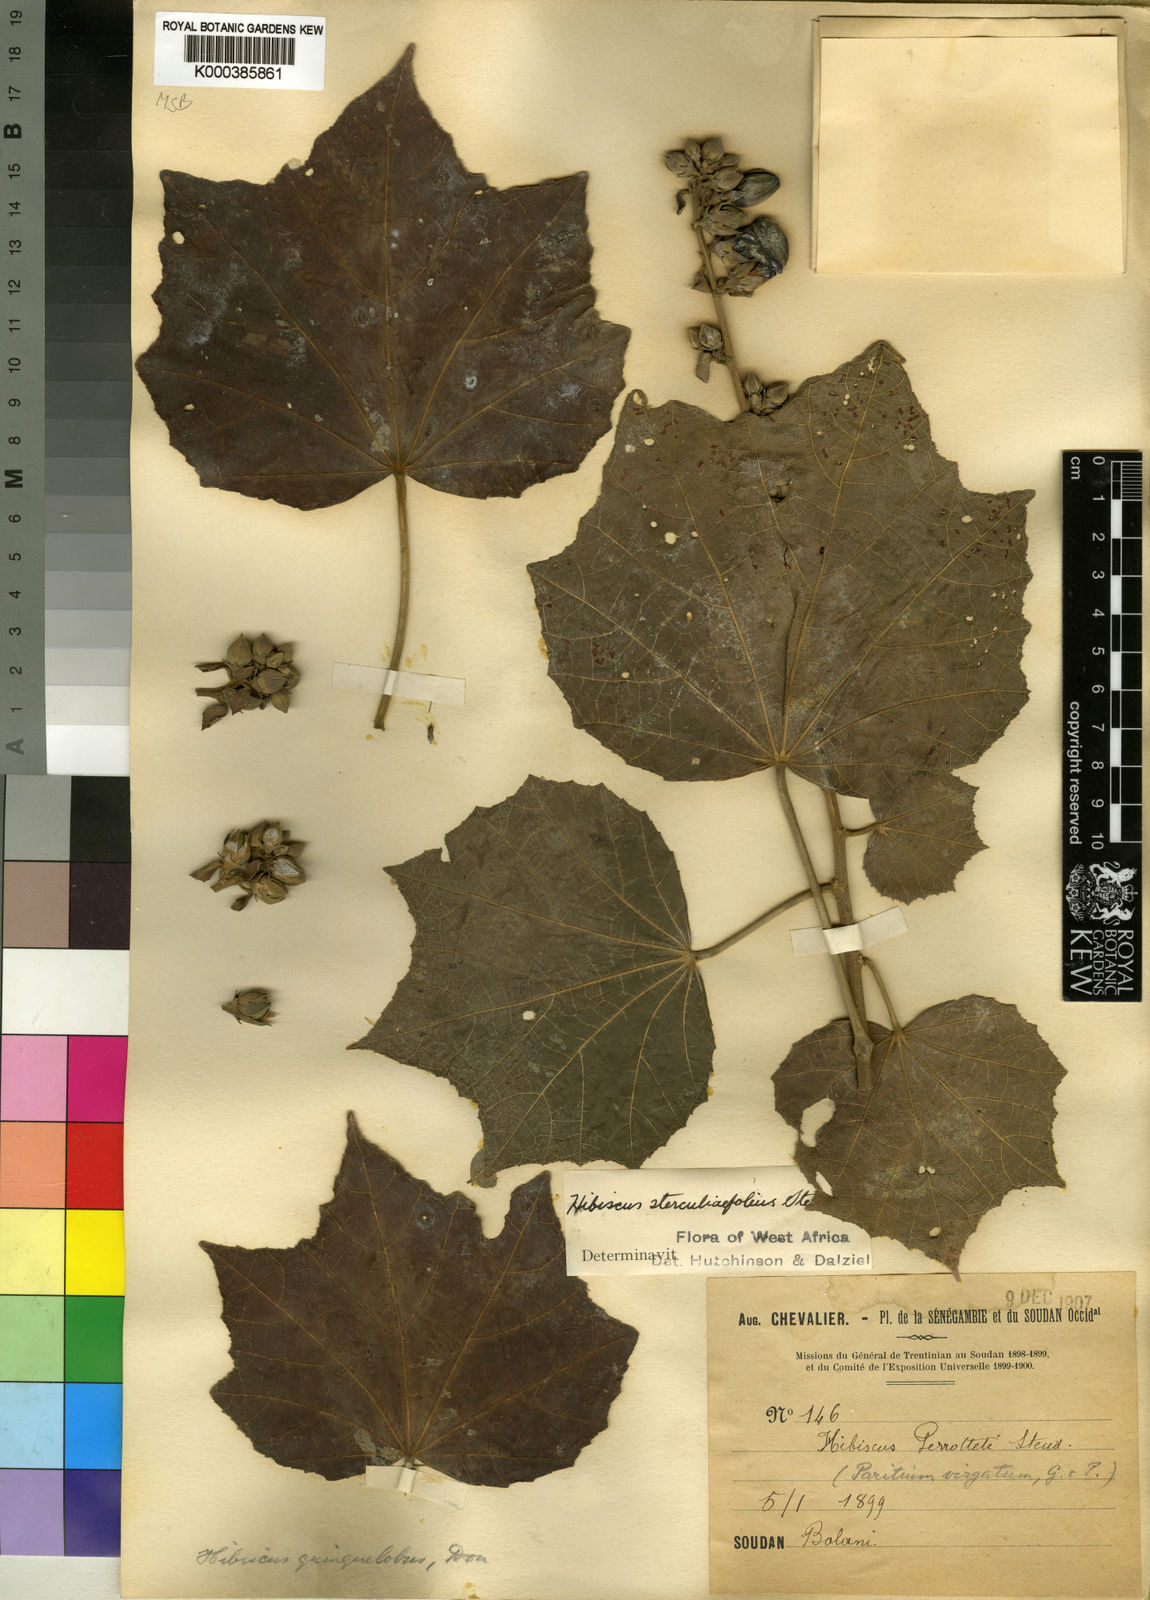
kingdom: Plantae
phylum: Tracheophyta
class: Magnoliopsida
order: Malvales
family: Malvaceae
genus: Hibiscus
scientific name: Hibiscus sterculiifolius
